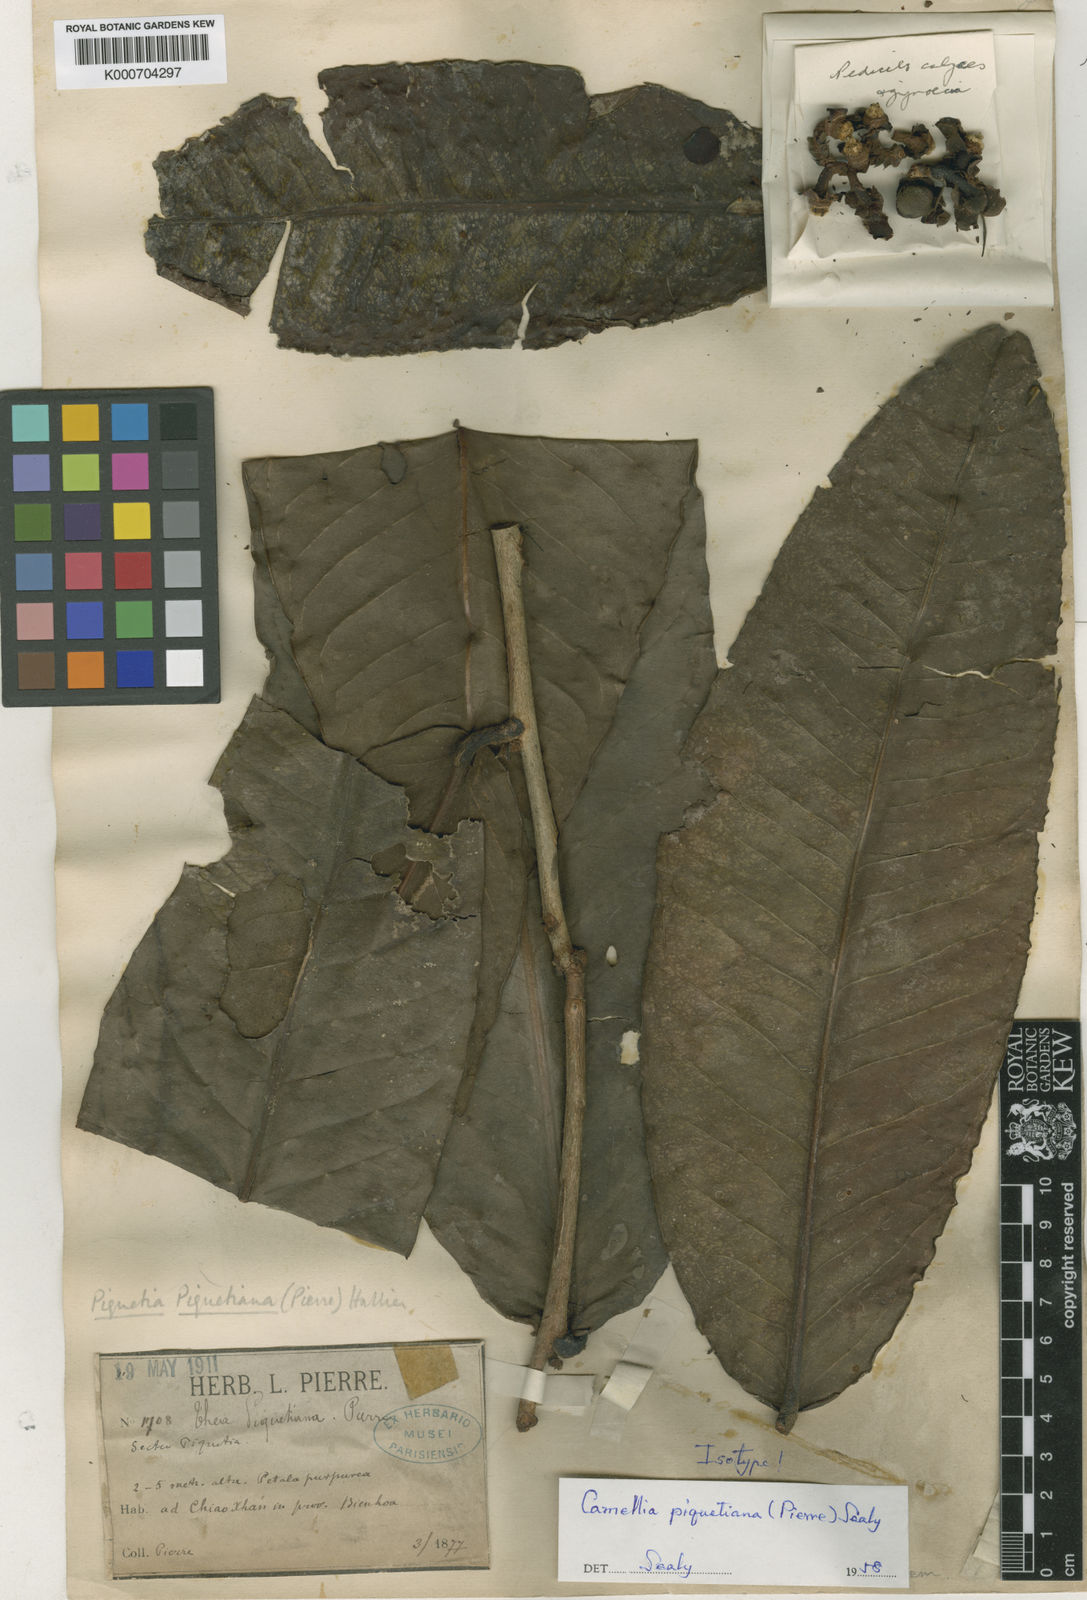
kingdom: Plantae
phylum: Tracheophyta
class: Magnoliopsida
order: Ericales
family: Theaceae
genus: Camellia
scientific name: Camellia piquetiana
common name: Purple camellia
